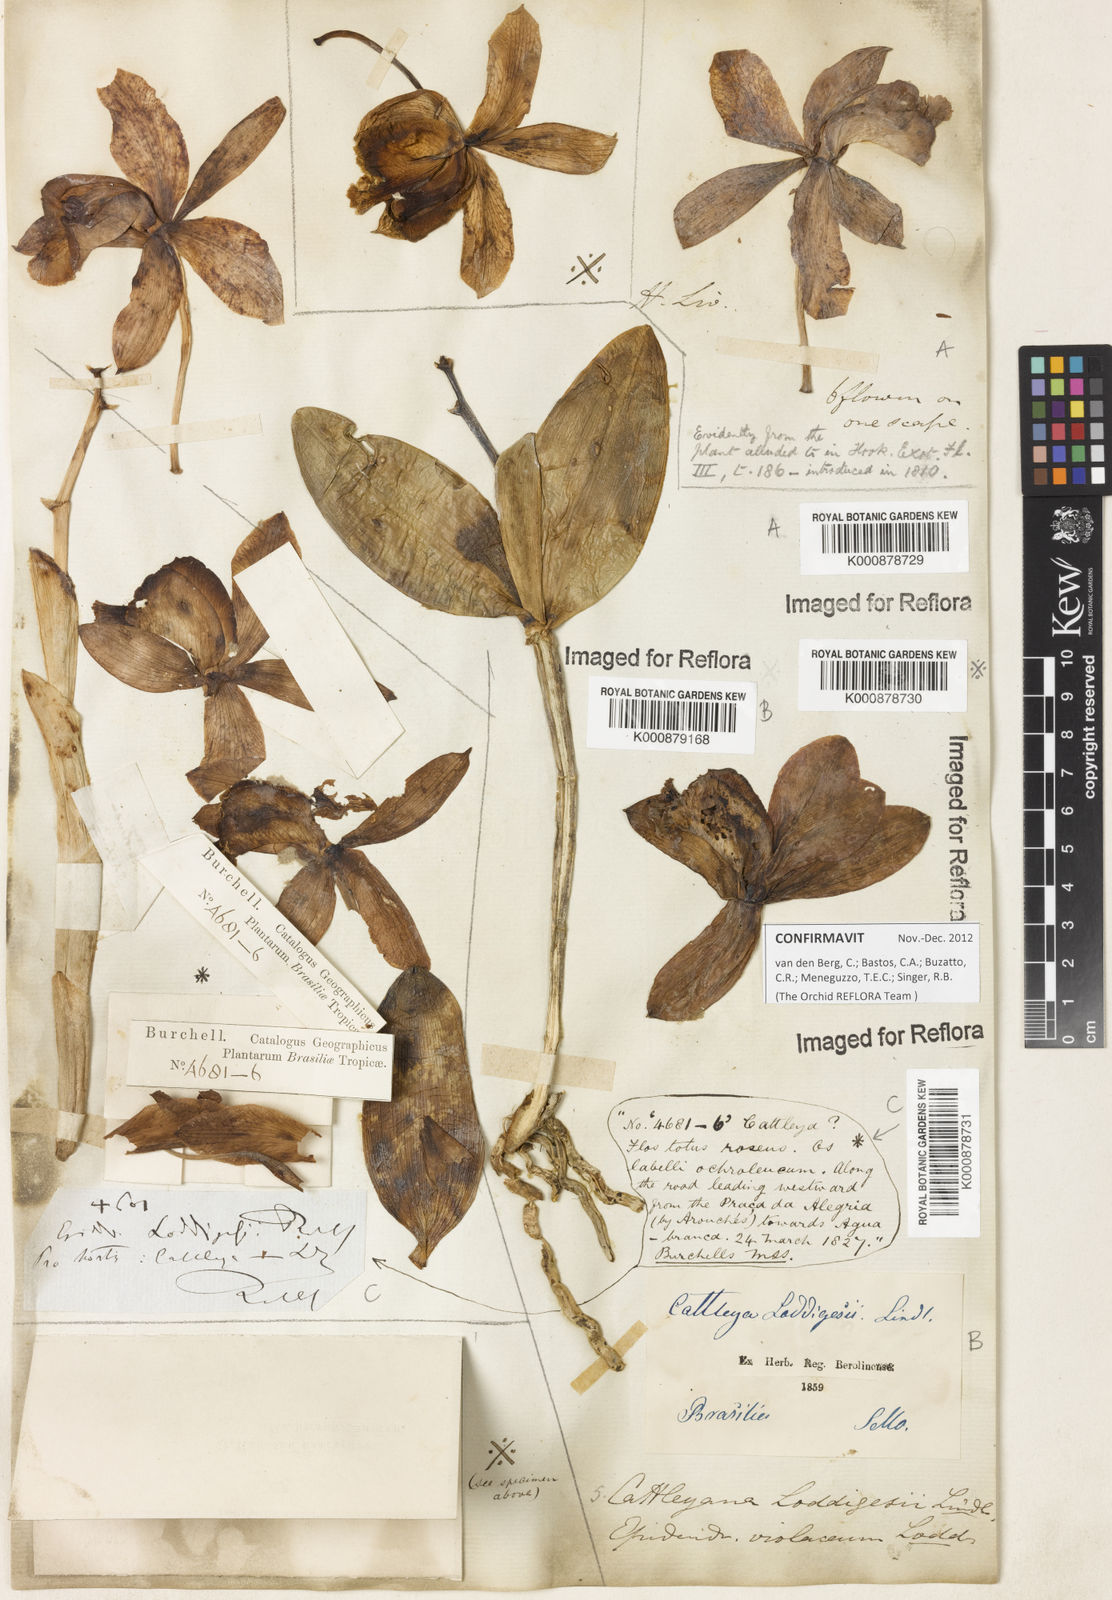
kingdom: Plantae
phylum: Tracheophyta
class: Liliopsida
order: Asparagales
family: Orchidaceae
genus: Cattleya
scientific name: Cattleya loddigesii
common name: Loddiges's cattleya
